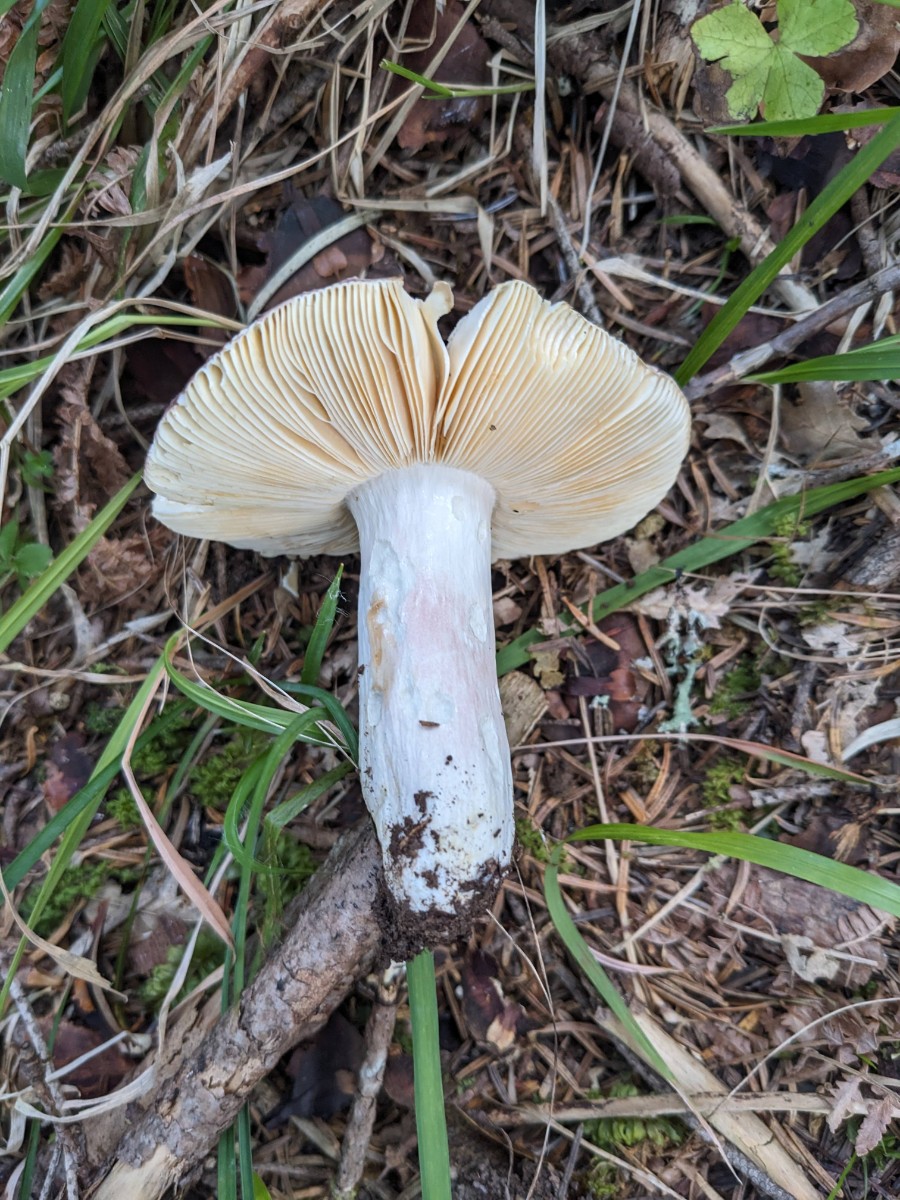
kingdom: Fungi
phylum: Basidiomycota
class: Agaricomycetes
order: Russulales
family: Russulaceae
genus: Russula
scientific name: Russula olivacea
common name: stor skørhat
